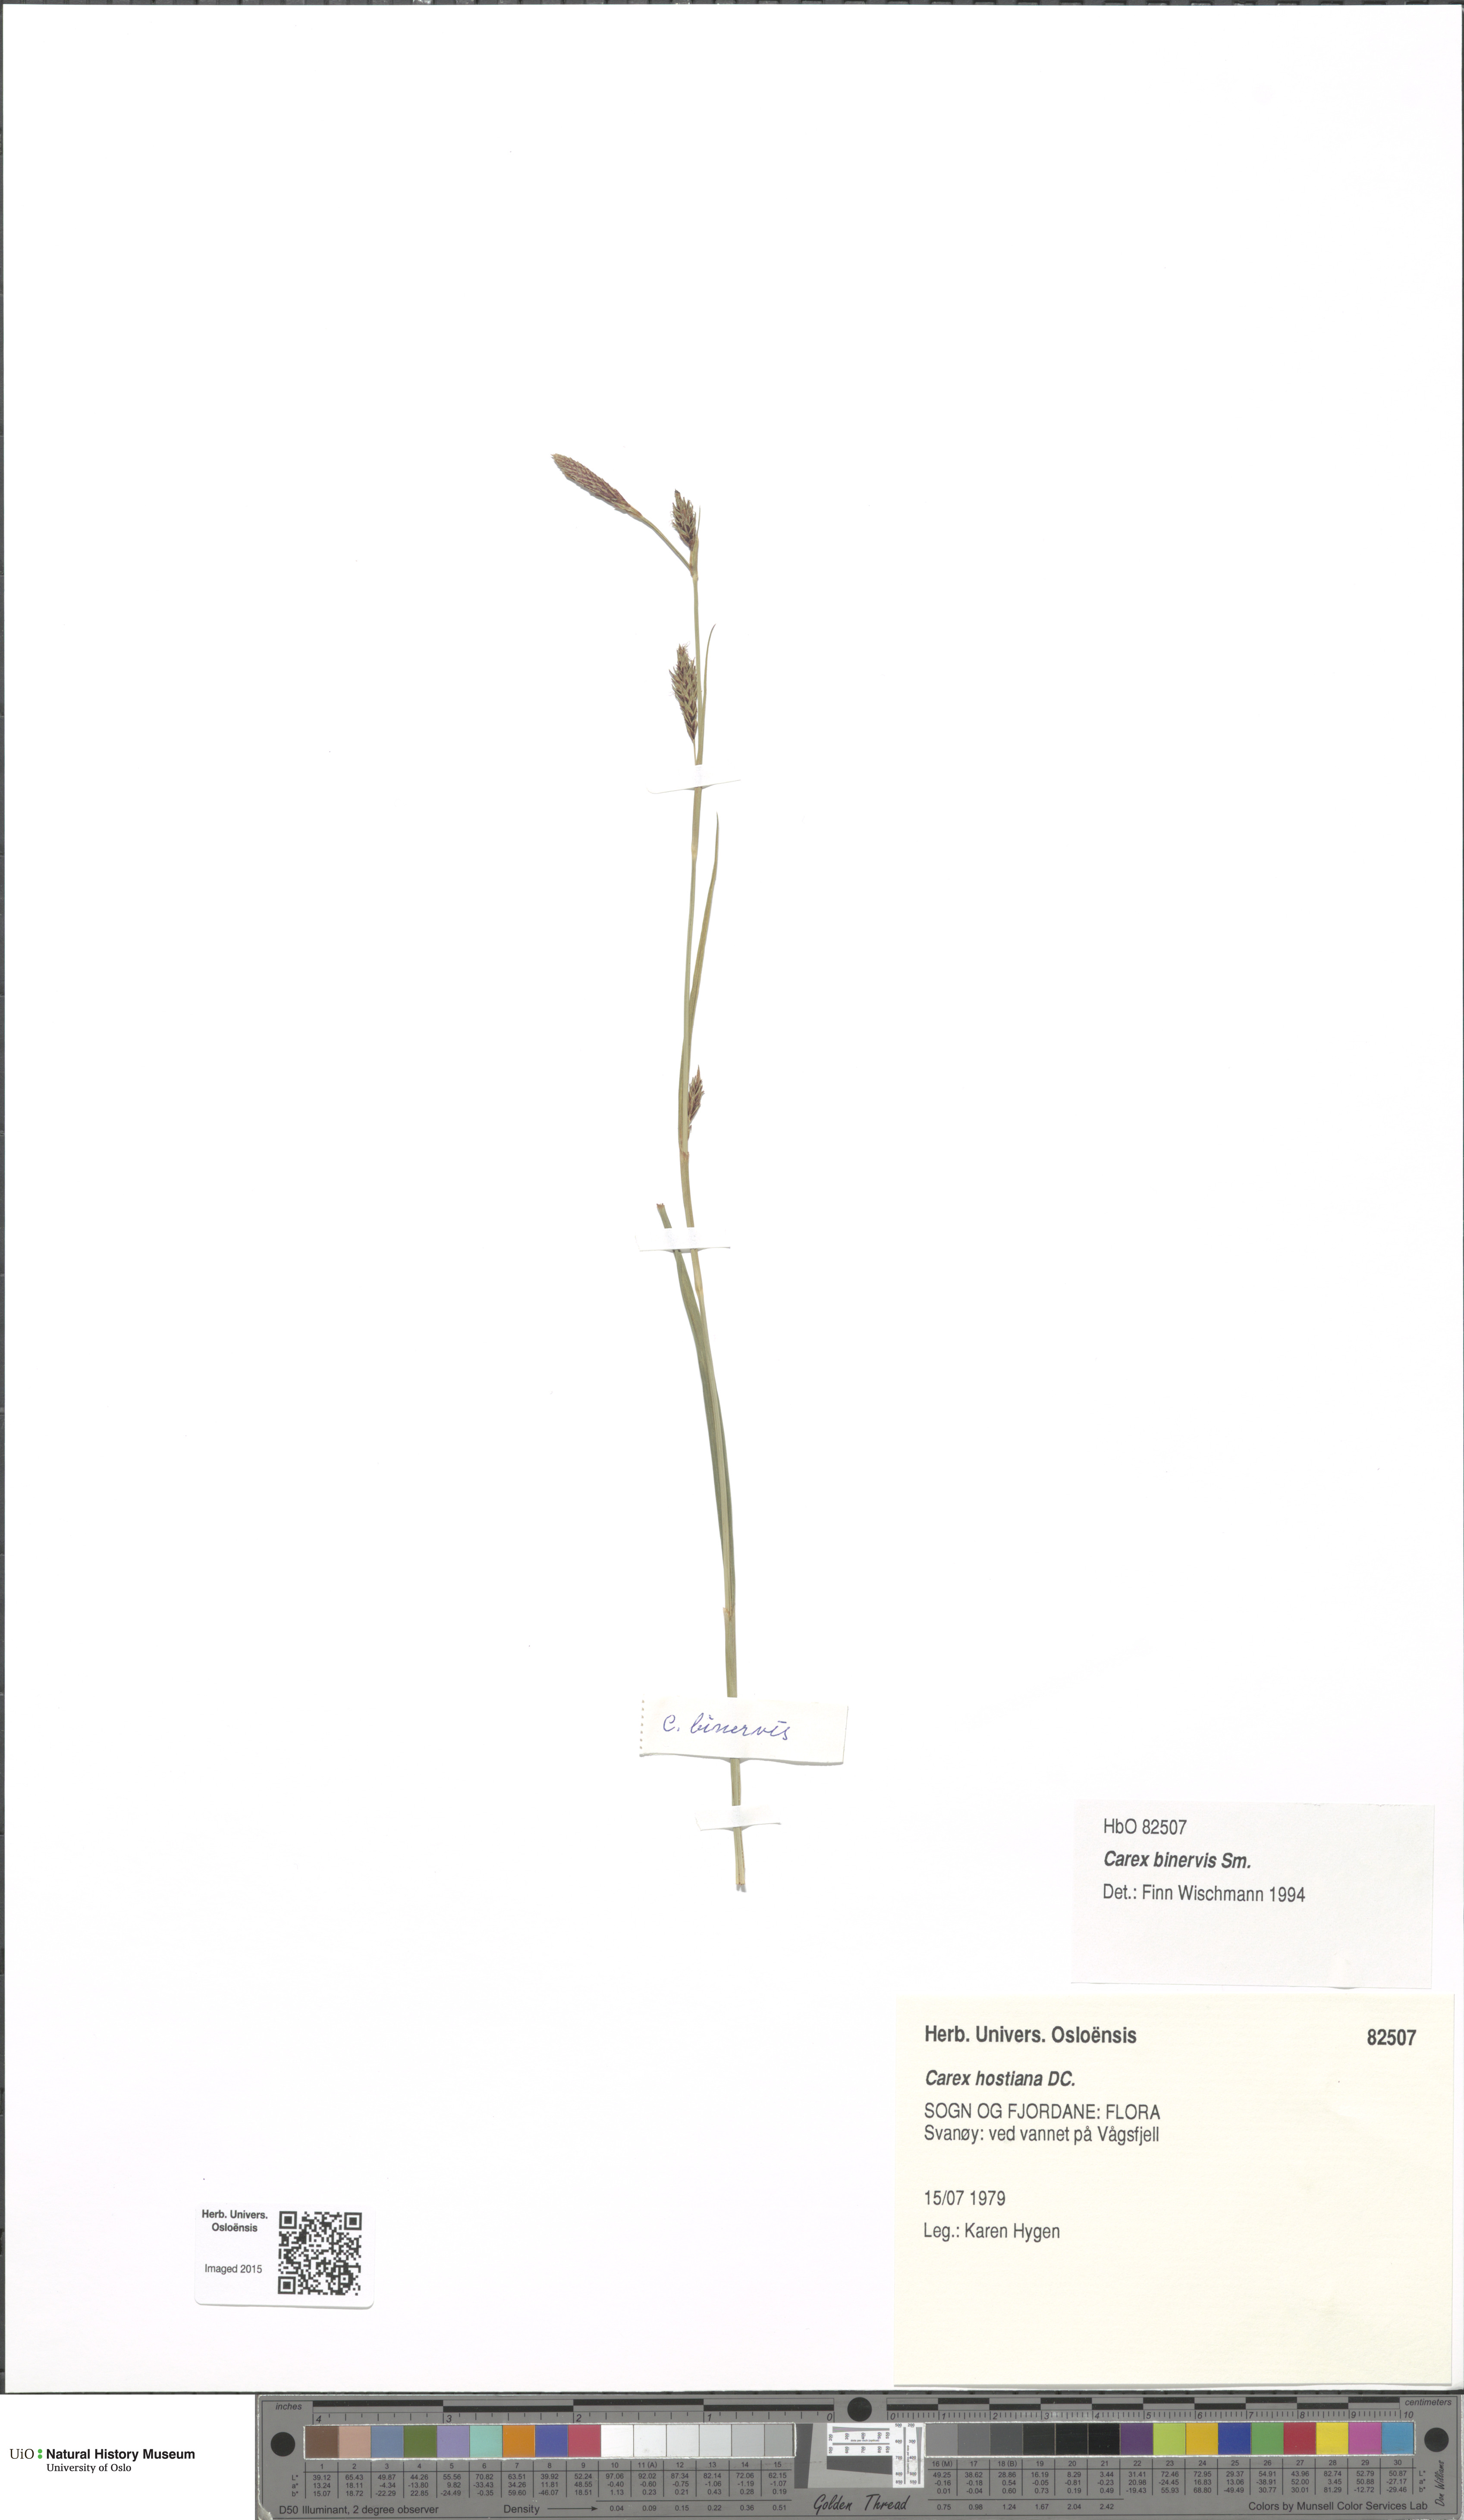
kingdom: Plantae
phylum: Tracheophyta
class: Liliopsida
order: Poales
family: Cyperaceae
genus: Carex
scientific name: Carex binervis
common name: Green-ribbed sedge
